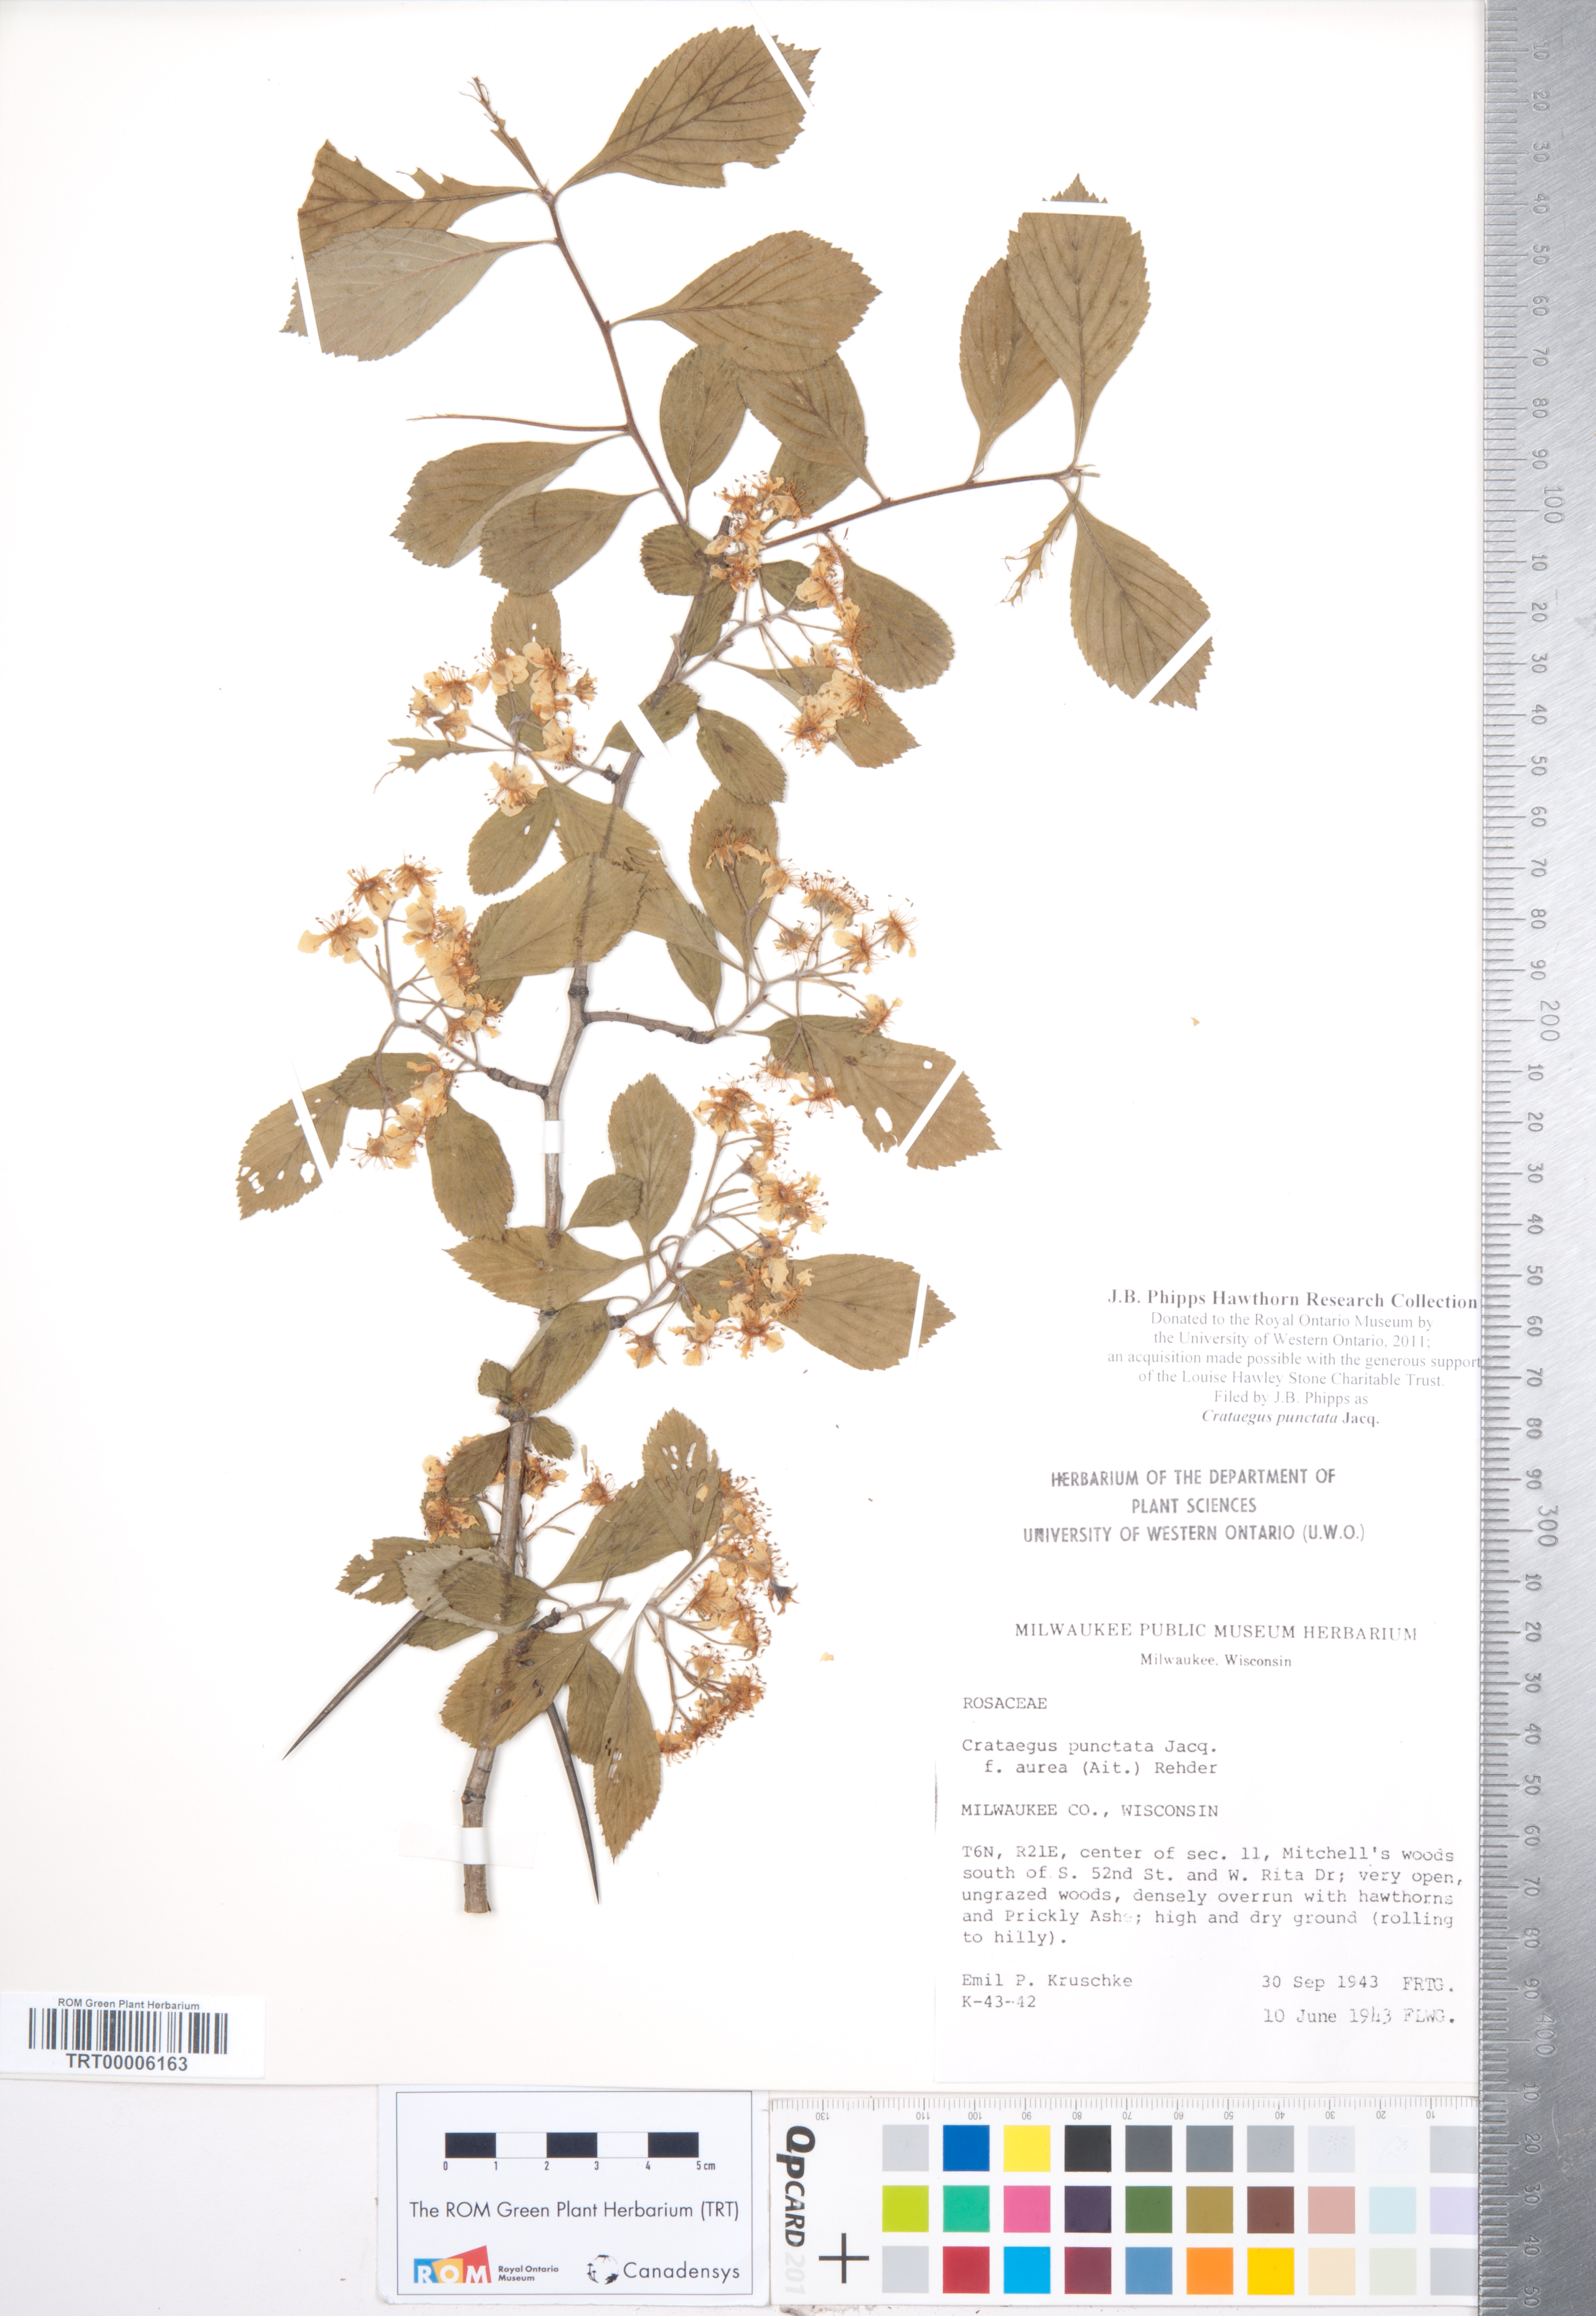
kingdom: Plantae
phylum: Tracheophyta
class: Magnoliopsida
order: Rosales
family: Rosaceae
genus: Crataegus
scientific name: Crataegus punctata
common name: Dotted hawthorn
